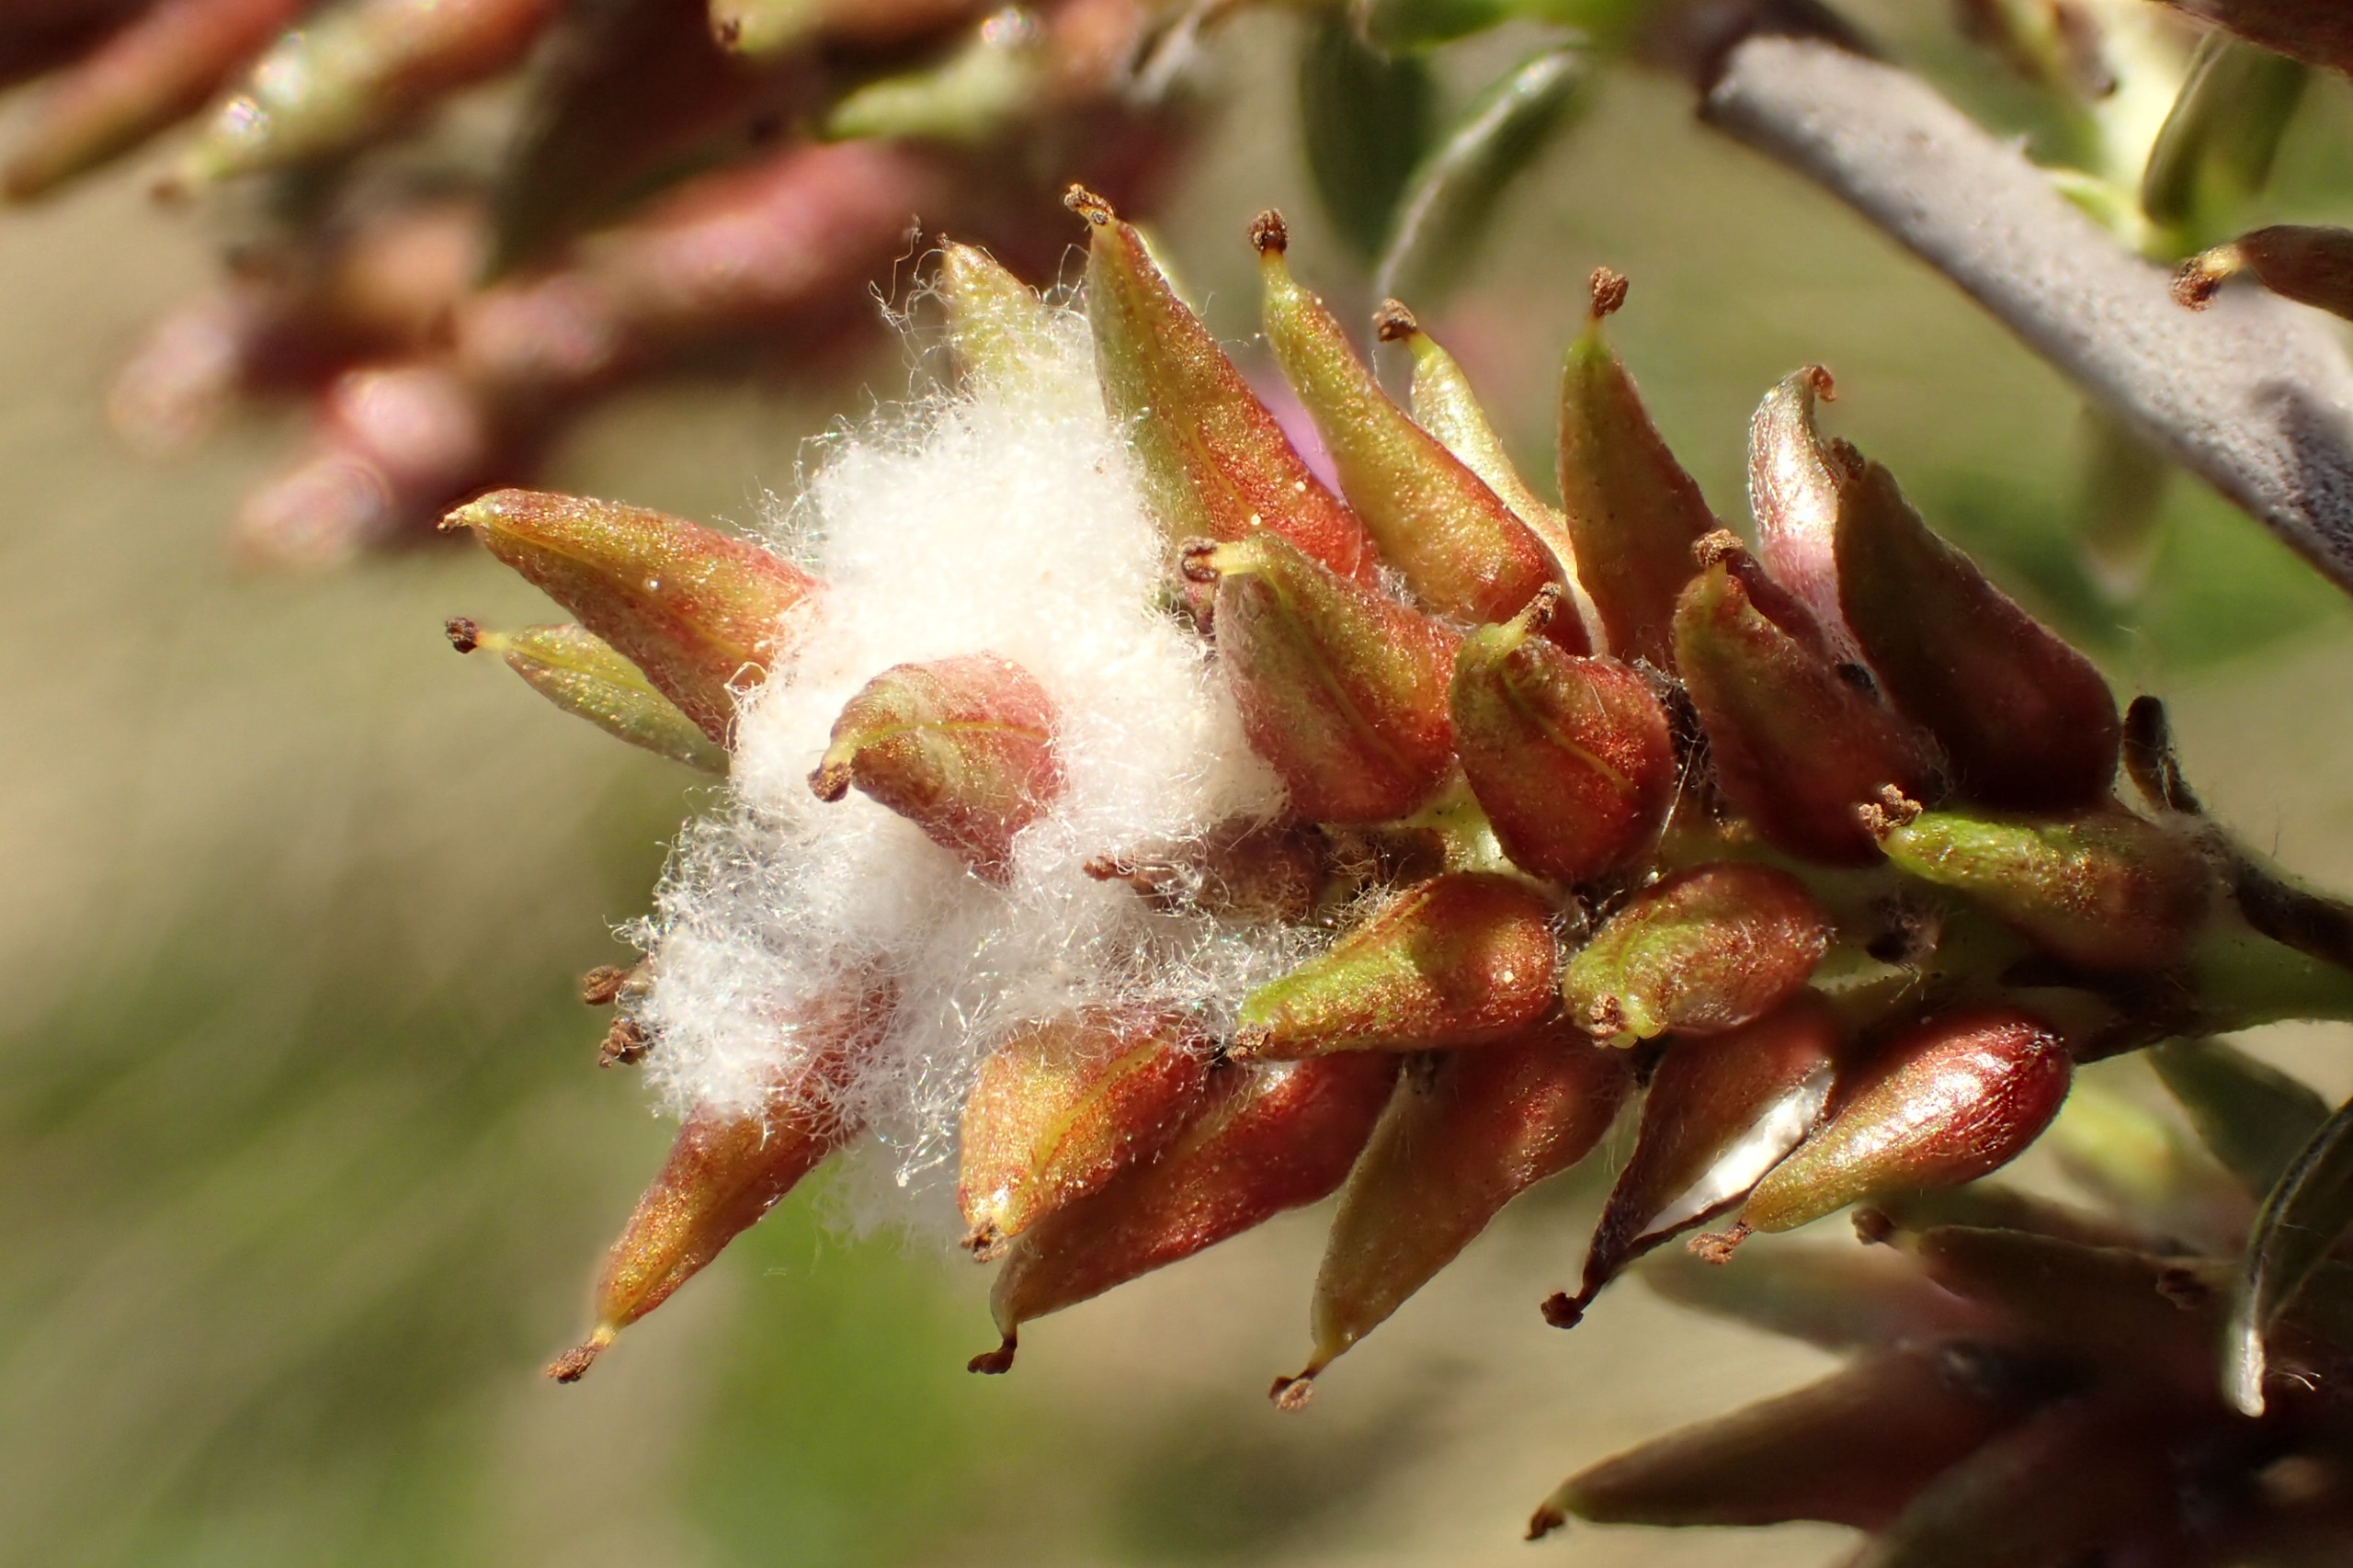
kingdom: Plantae
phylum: Tracheophyta
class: Magnoliopsida
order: Malpighiales
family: Salicaceae
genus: Salix
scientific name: Salix repens
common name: Krybende pil
